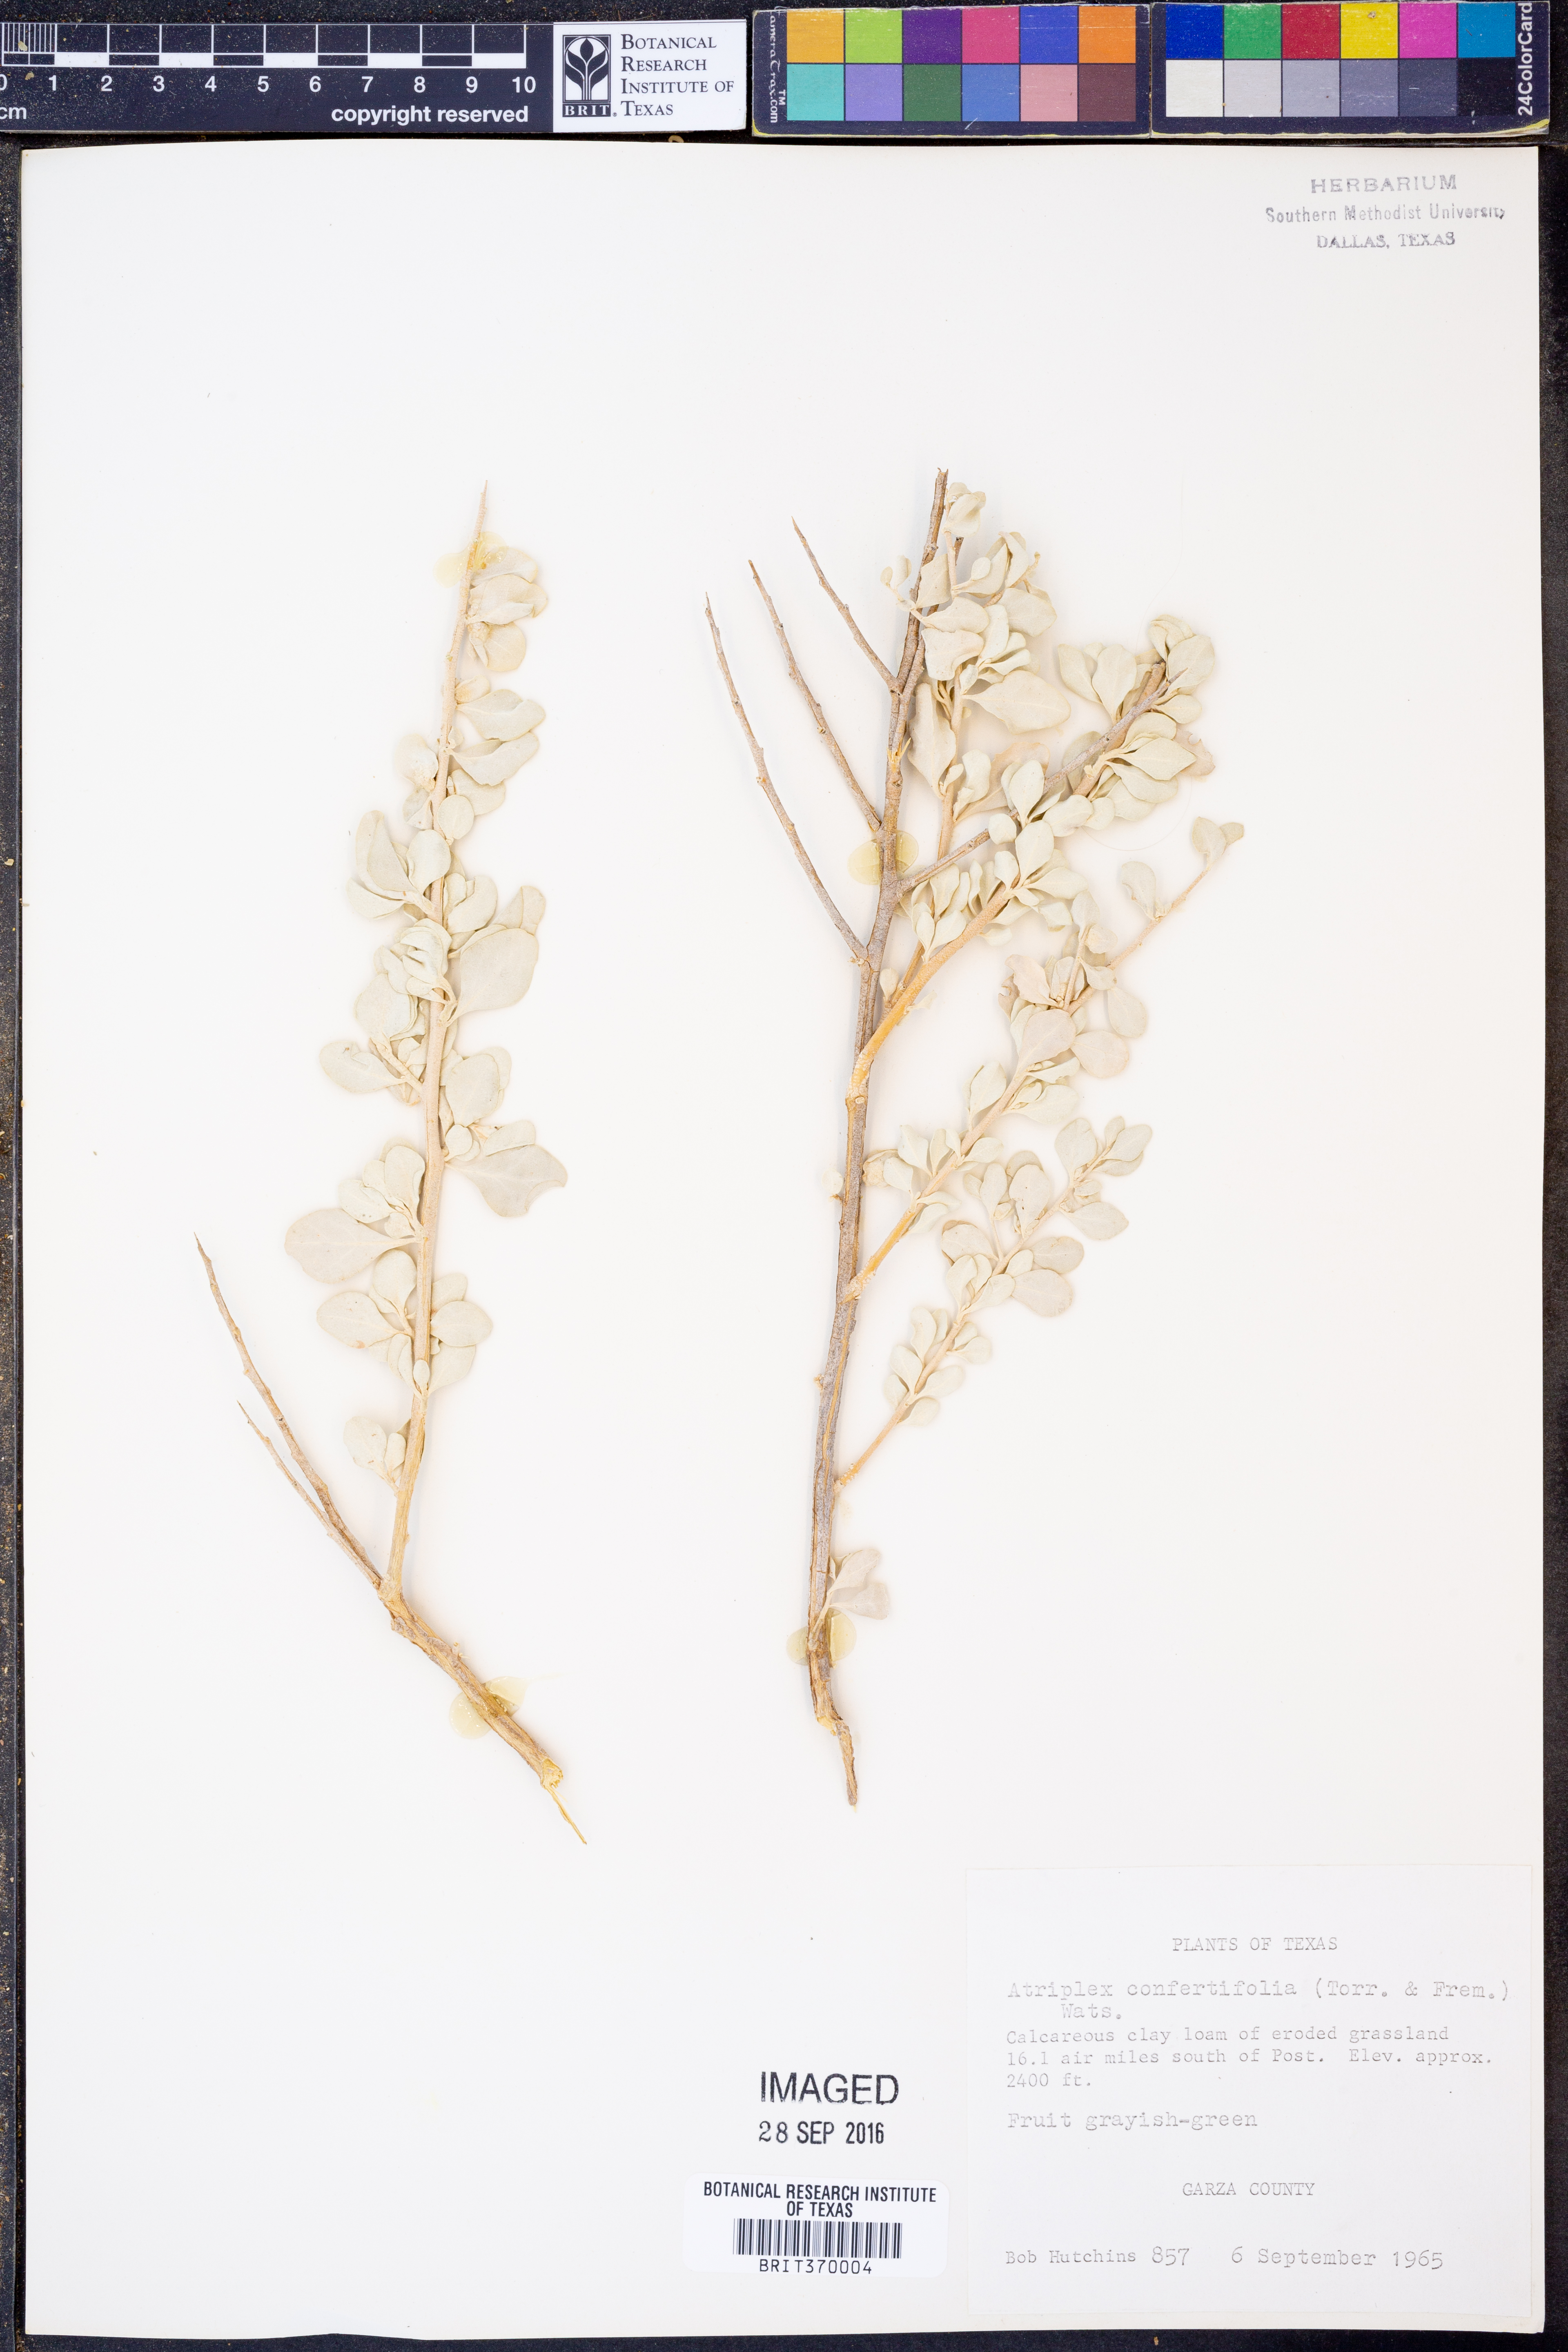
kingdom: Plantae
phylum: Tracheophyta
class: Magnoliopsida
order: Caryophyllales
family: Amaranthaceae
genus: Atriplex
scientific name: Atriplex confertifolia
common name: Shadscale
